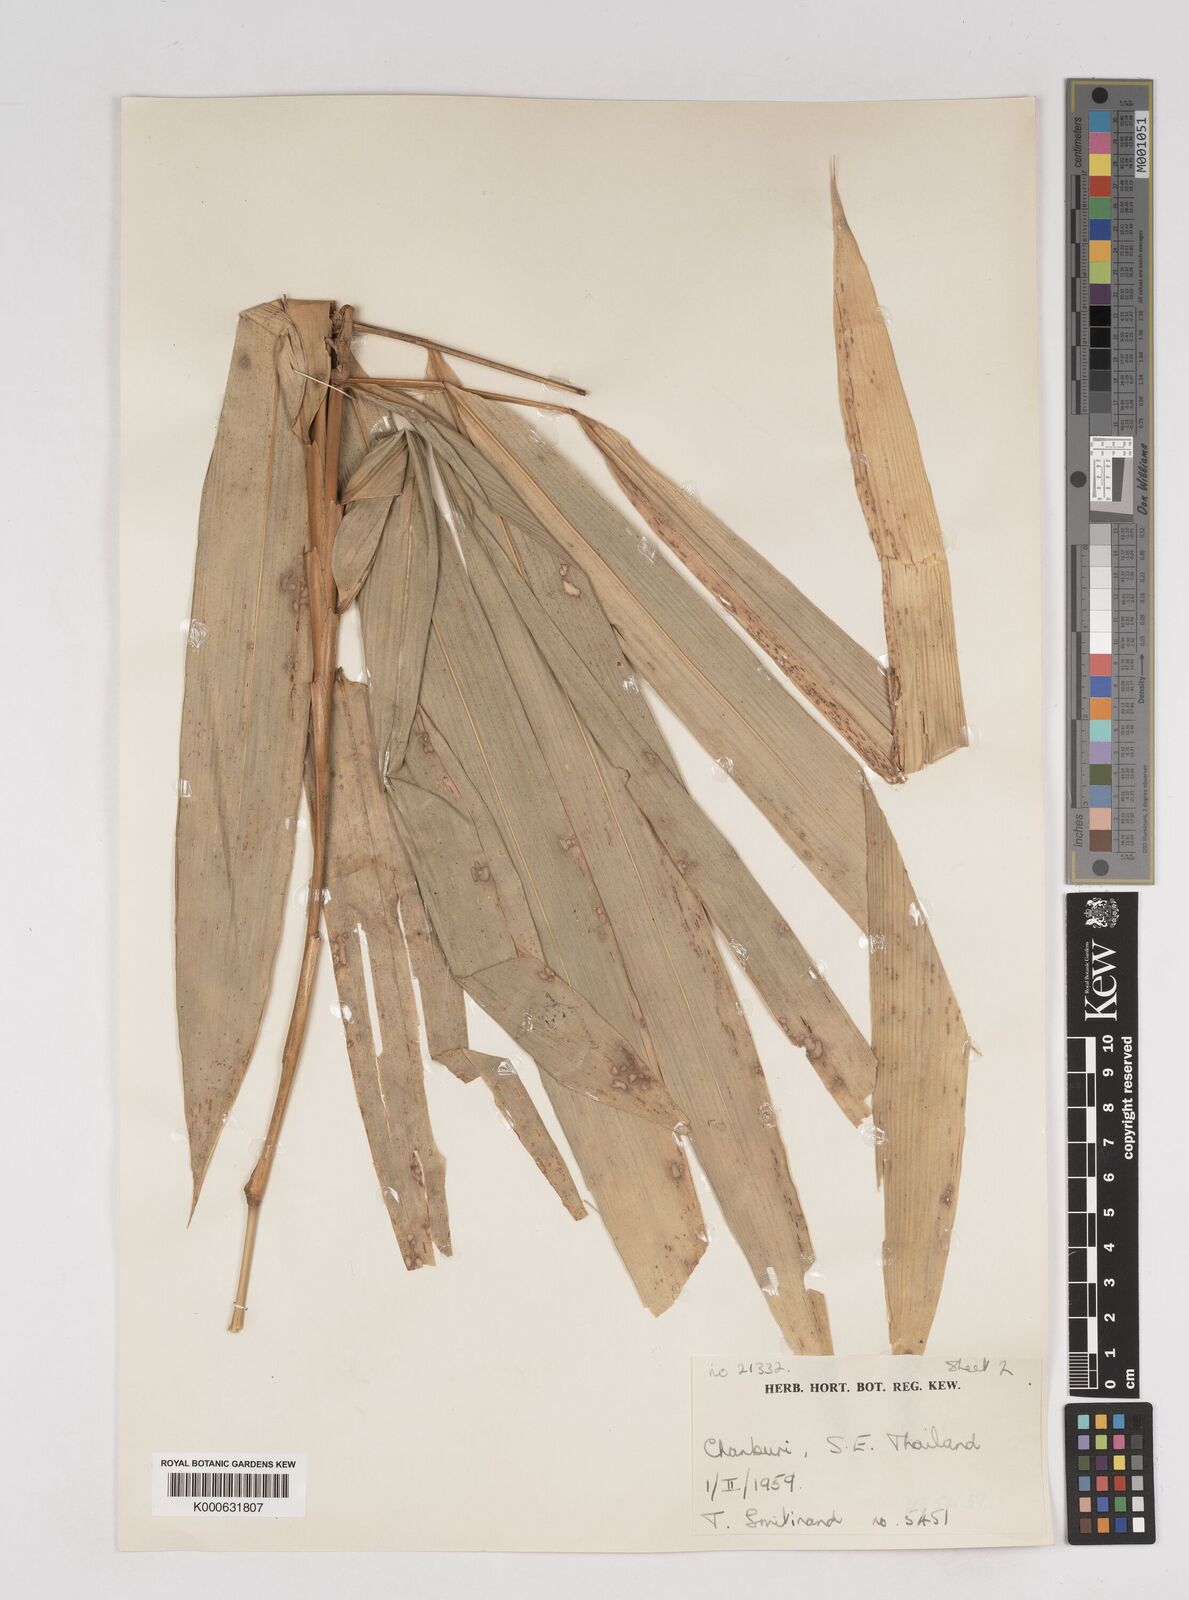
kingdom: Plantae
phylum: Tracheophyta
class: Liliopsida
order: Poales
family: Poaceae
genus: Gigantochloa
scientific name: Gigantochloa
